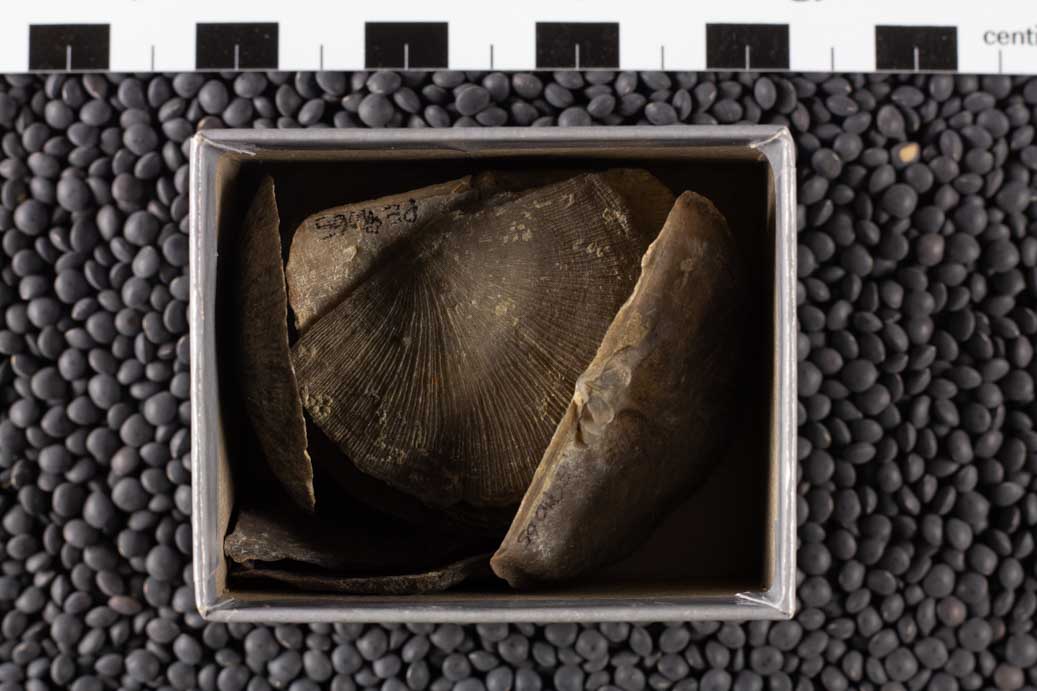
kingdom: Animalia
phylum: Brachiopoda
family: Strophomenidae
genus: Rafinesquina
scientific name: Rafinesquina Leptaena alternata
